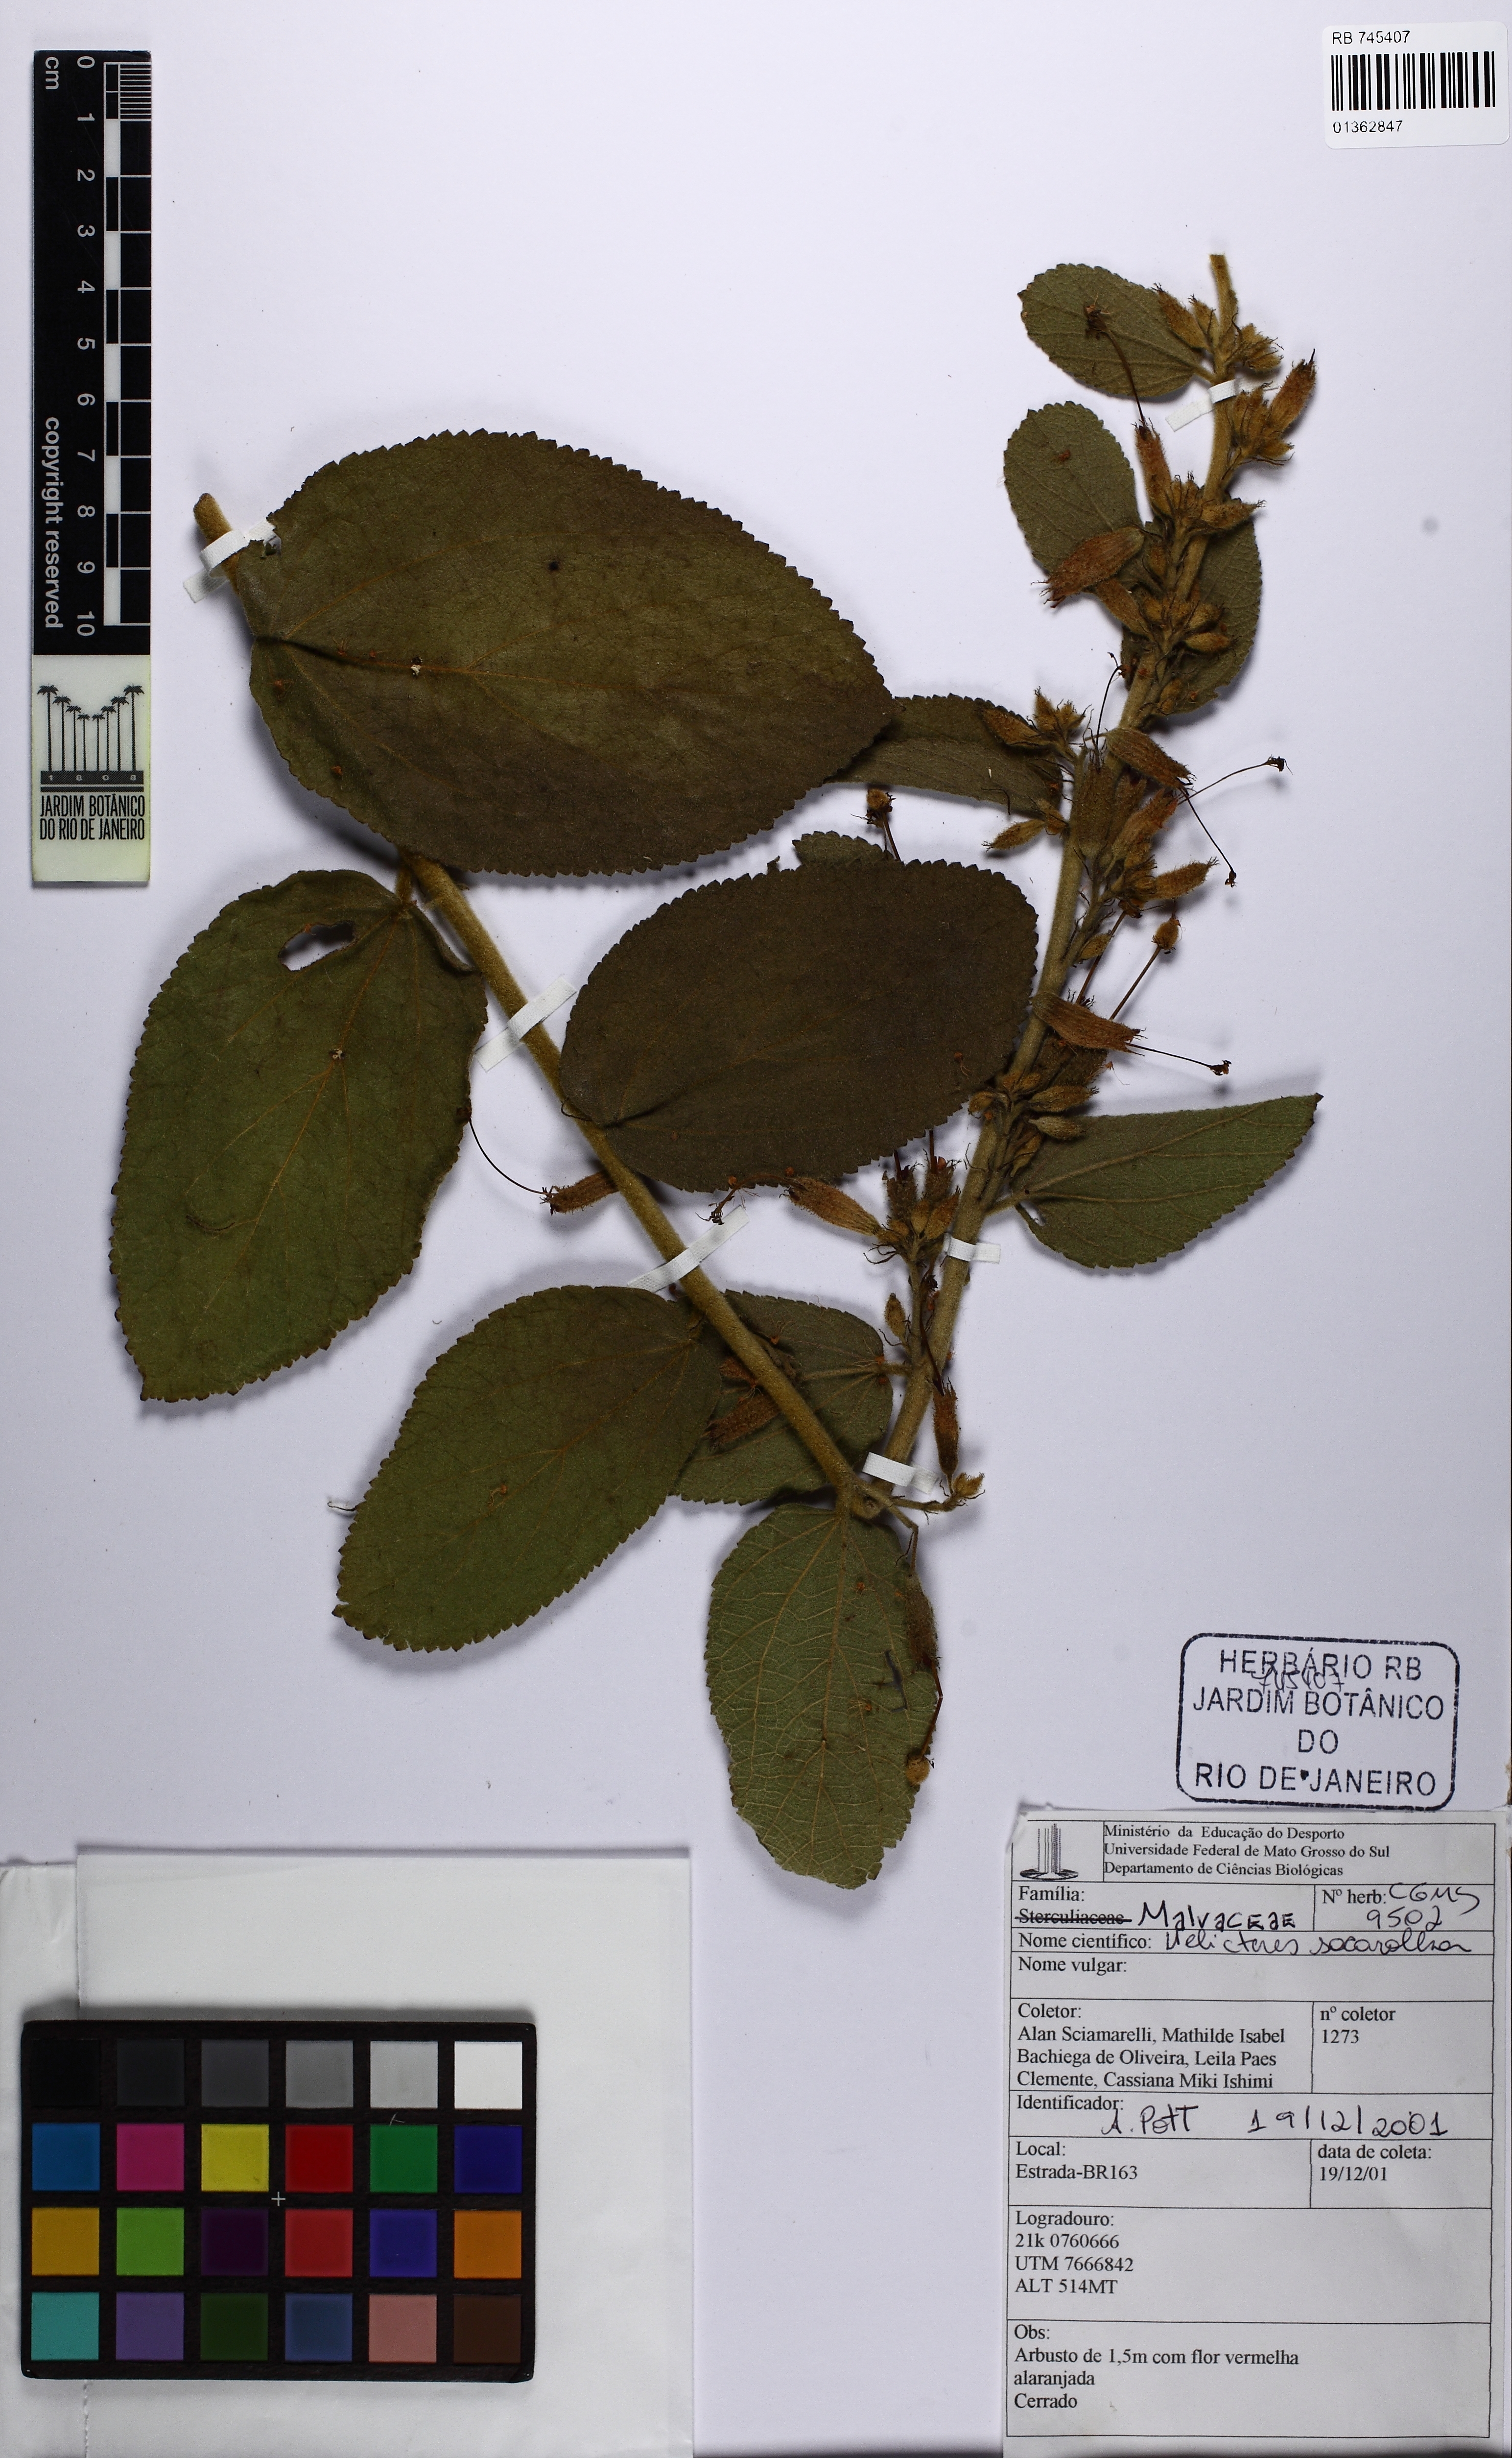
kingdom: Plantae
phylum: Tracheophyta
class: Magnoliopsida
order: Malvales
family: Malvaceae
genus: Helicteres
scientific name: Helicteres sacarolha
